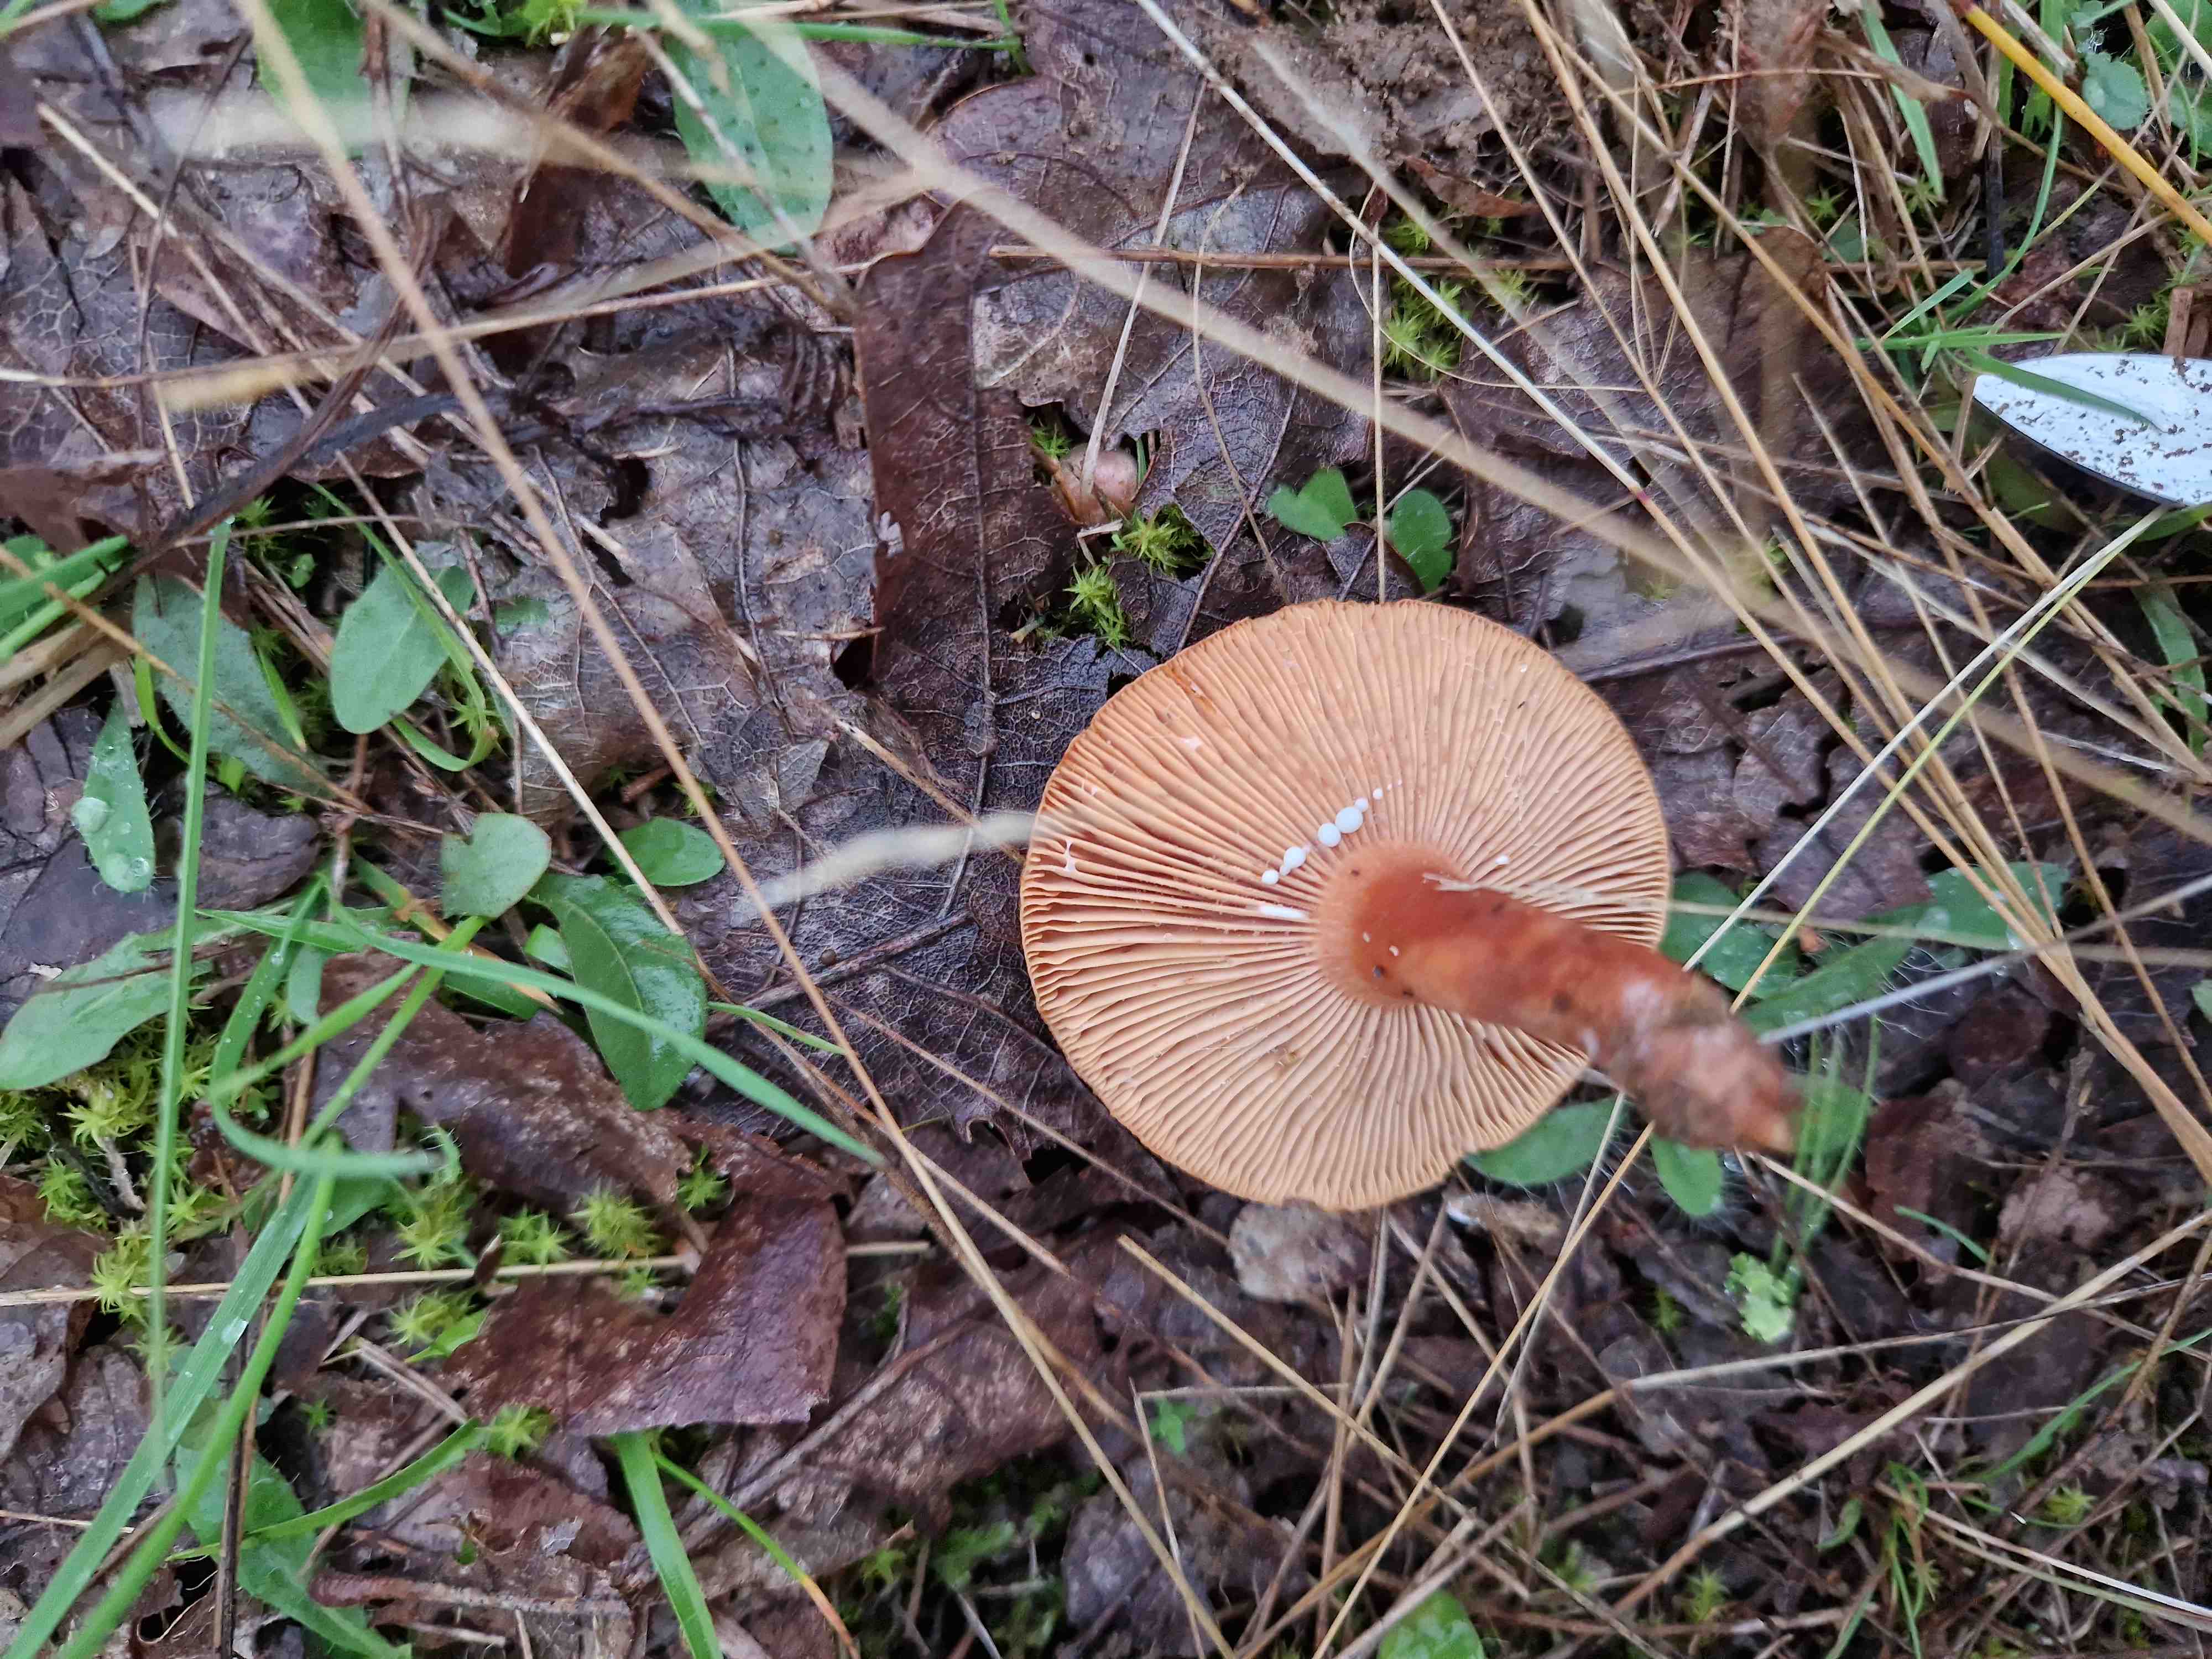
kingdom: Fungi
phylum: Basidiomycota
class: Agaricomycetes
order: Russulales
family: Russulaceae
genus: Lactarius
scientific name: Lactarius
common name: mælkehat
